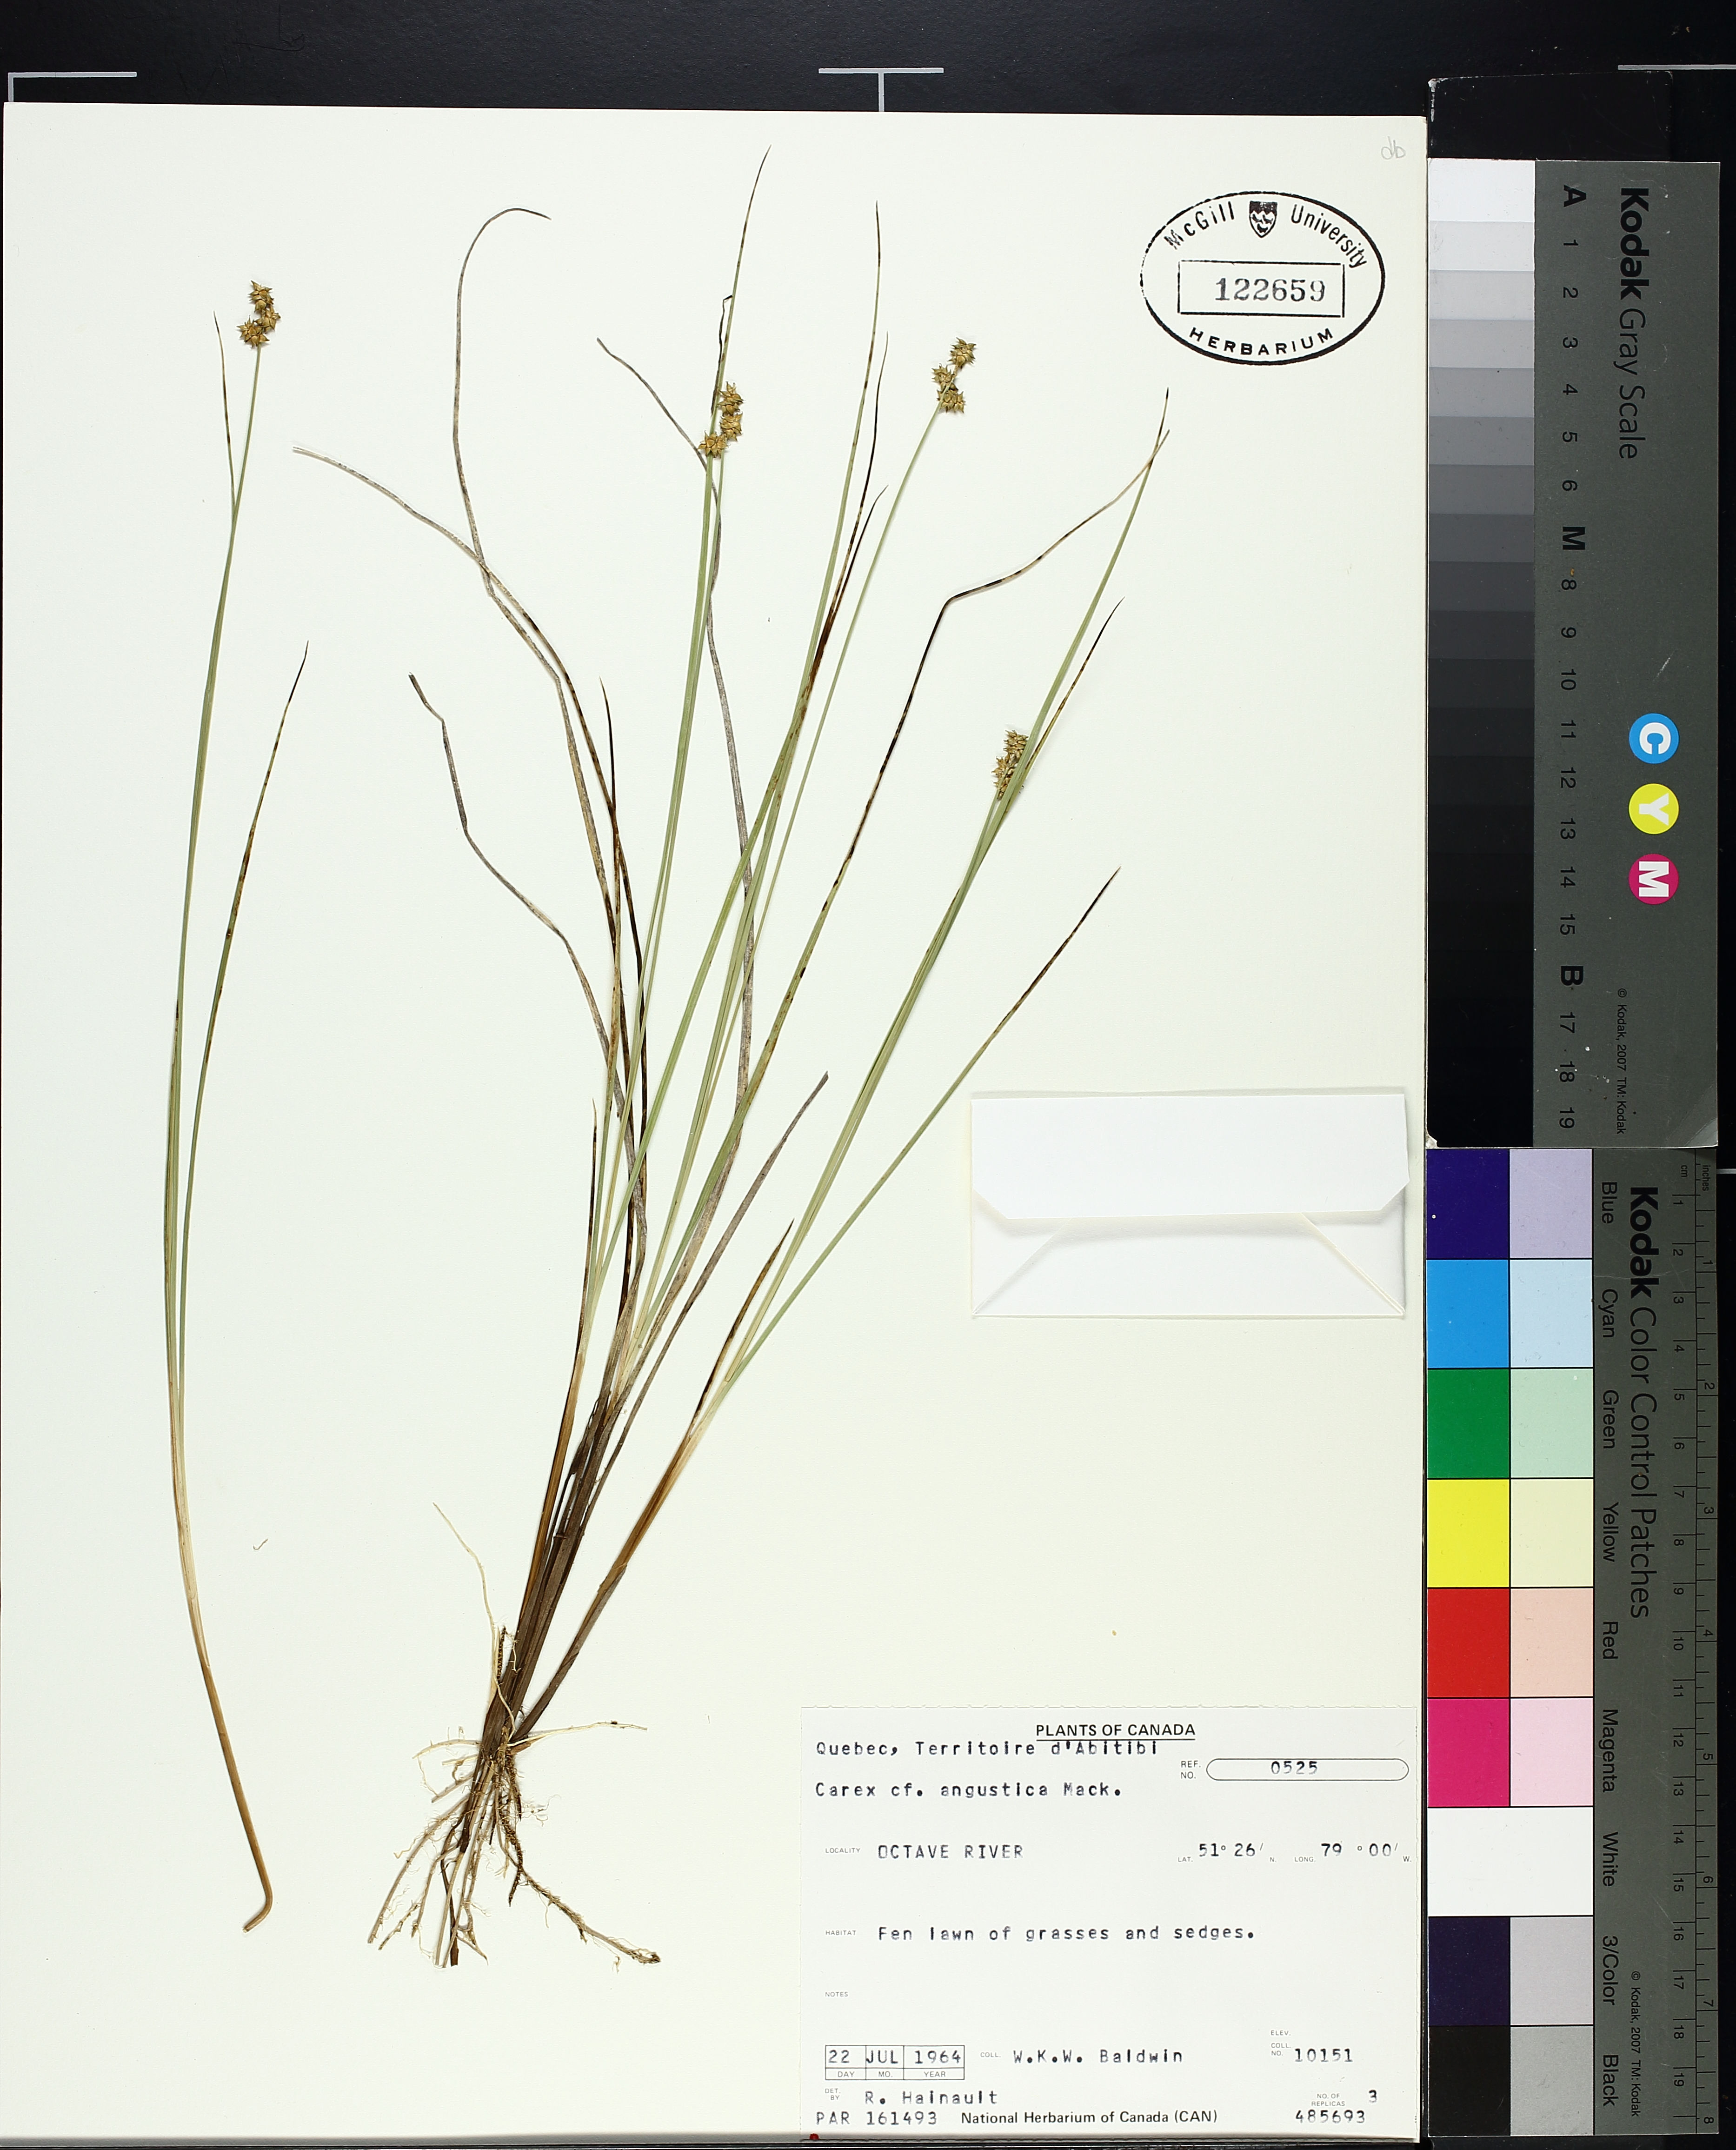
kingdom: Plantae
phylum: Tracheophyta
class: Liliopsida
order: Poales
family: Cyperaceae
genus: Carex
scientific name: Carex echinata
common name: Star sedge
